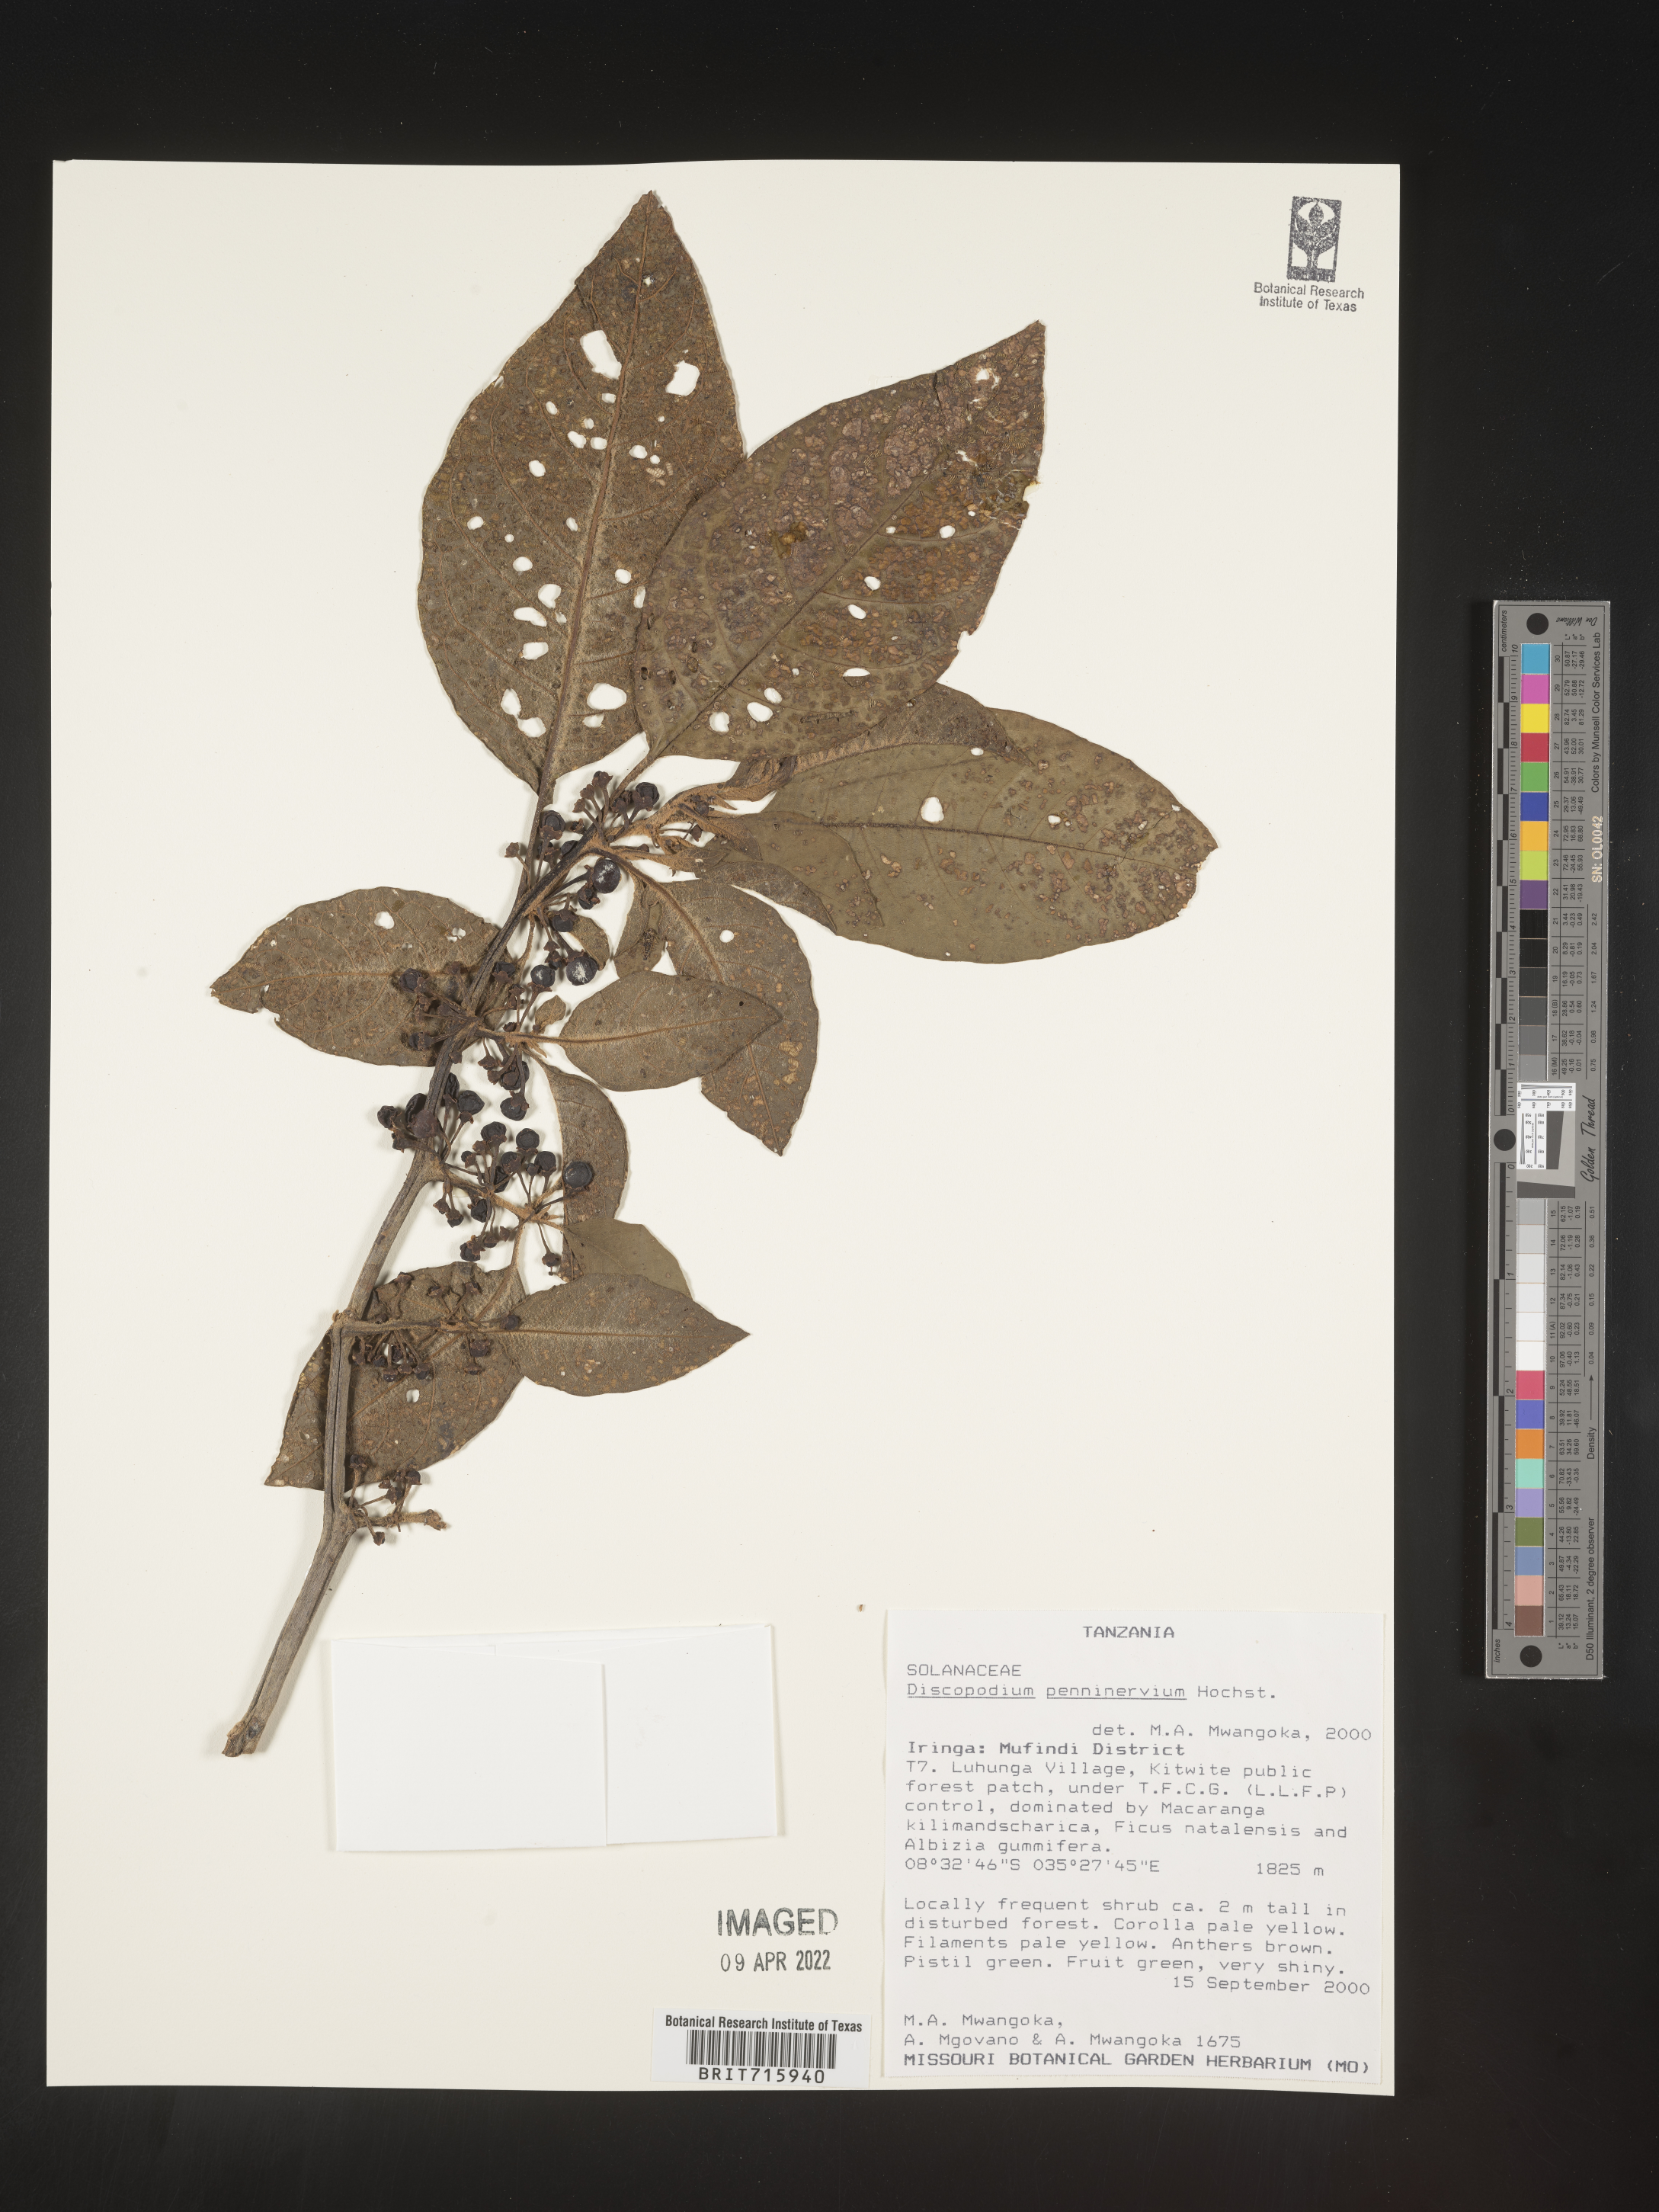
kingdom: Plantae
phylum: Tracheophyta
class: Magnoliopsida
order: Solanales
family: Solanaceae
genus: Discopodium
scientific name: Discopodium
